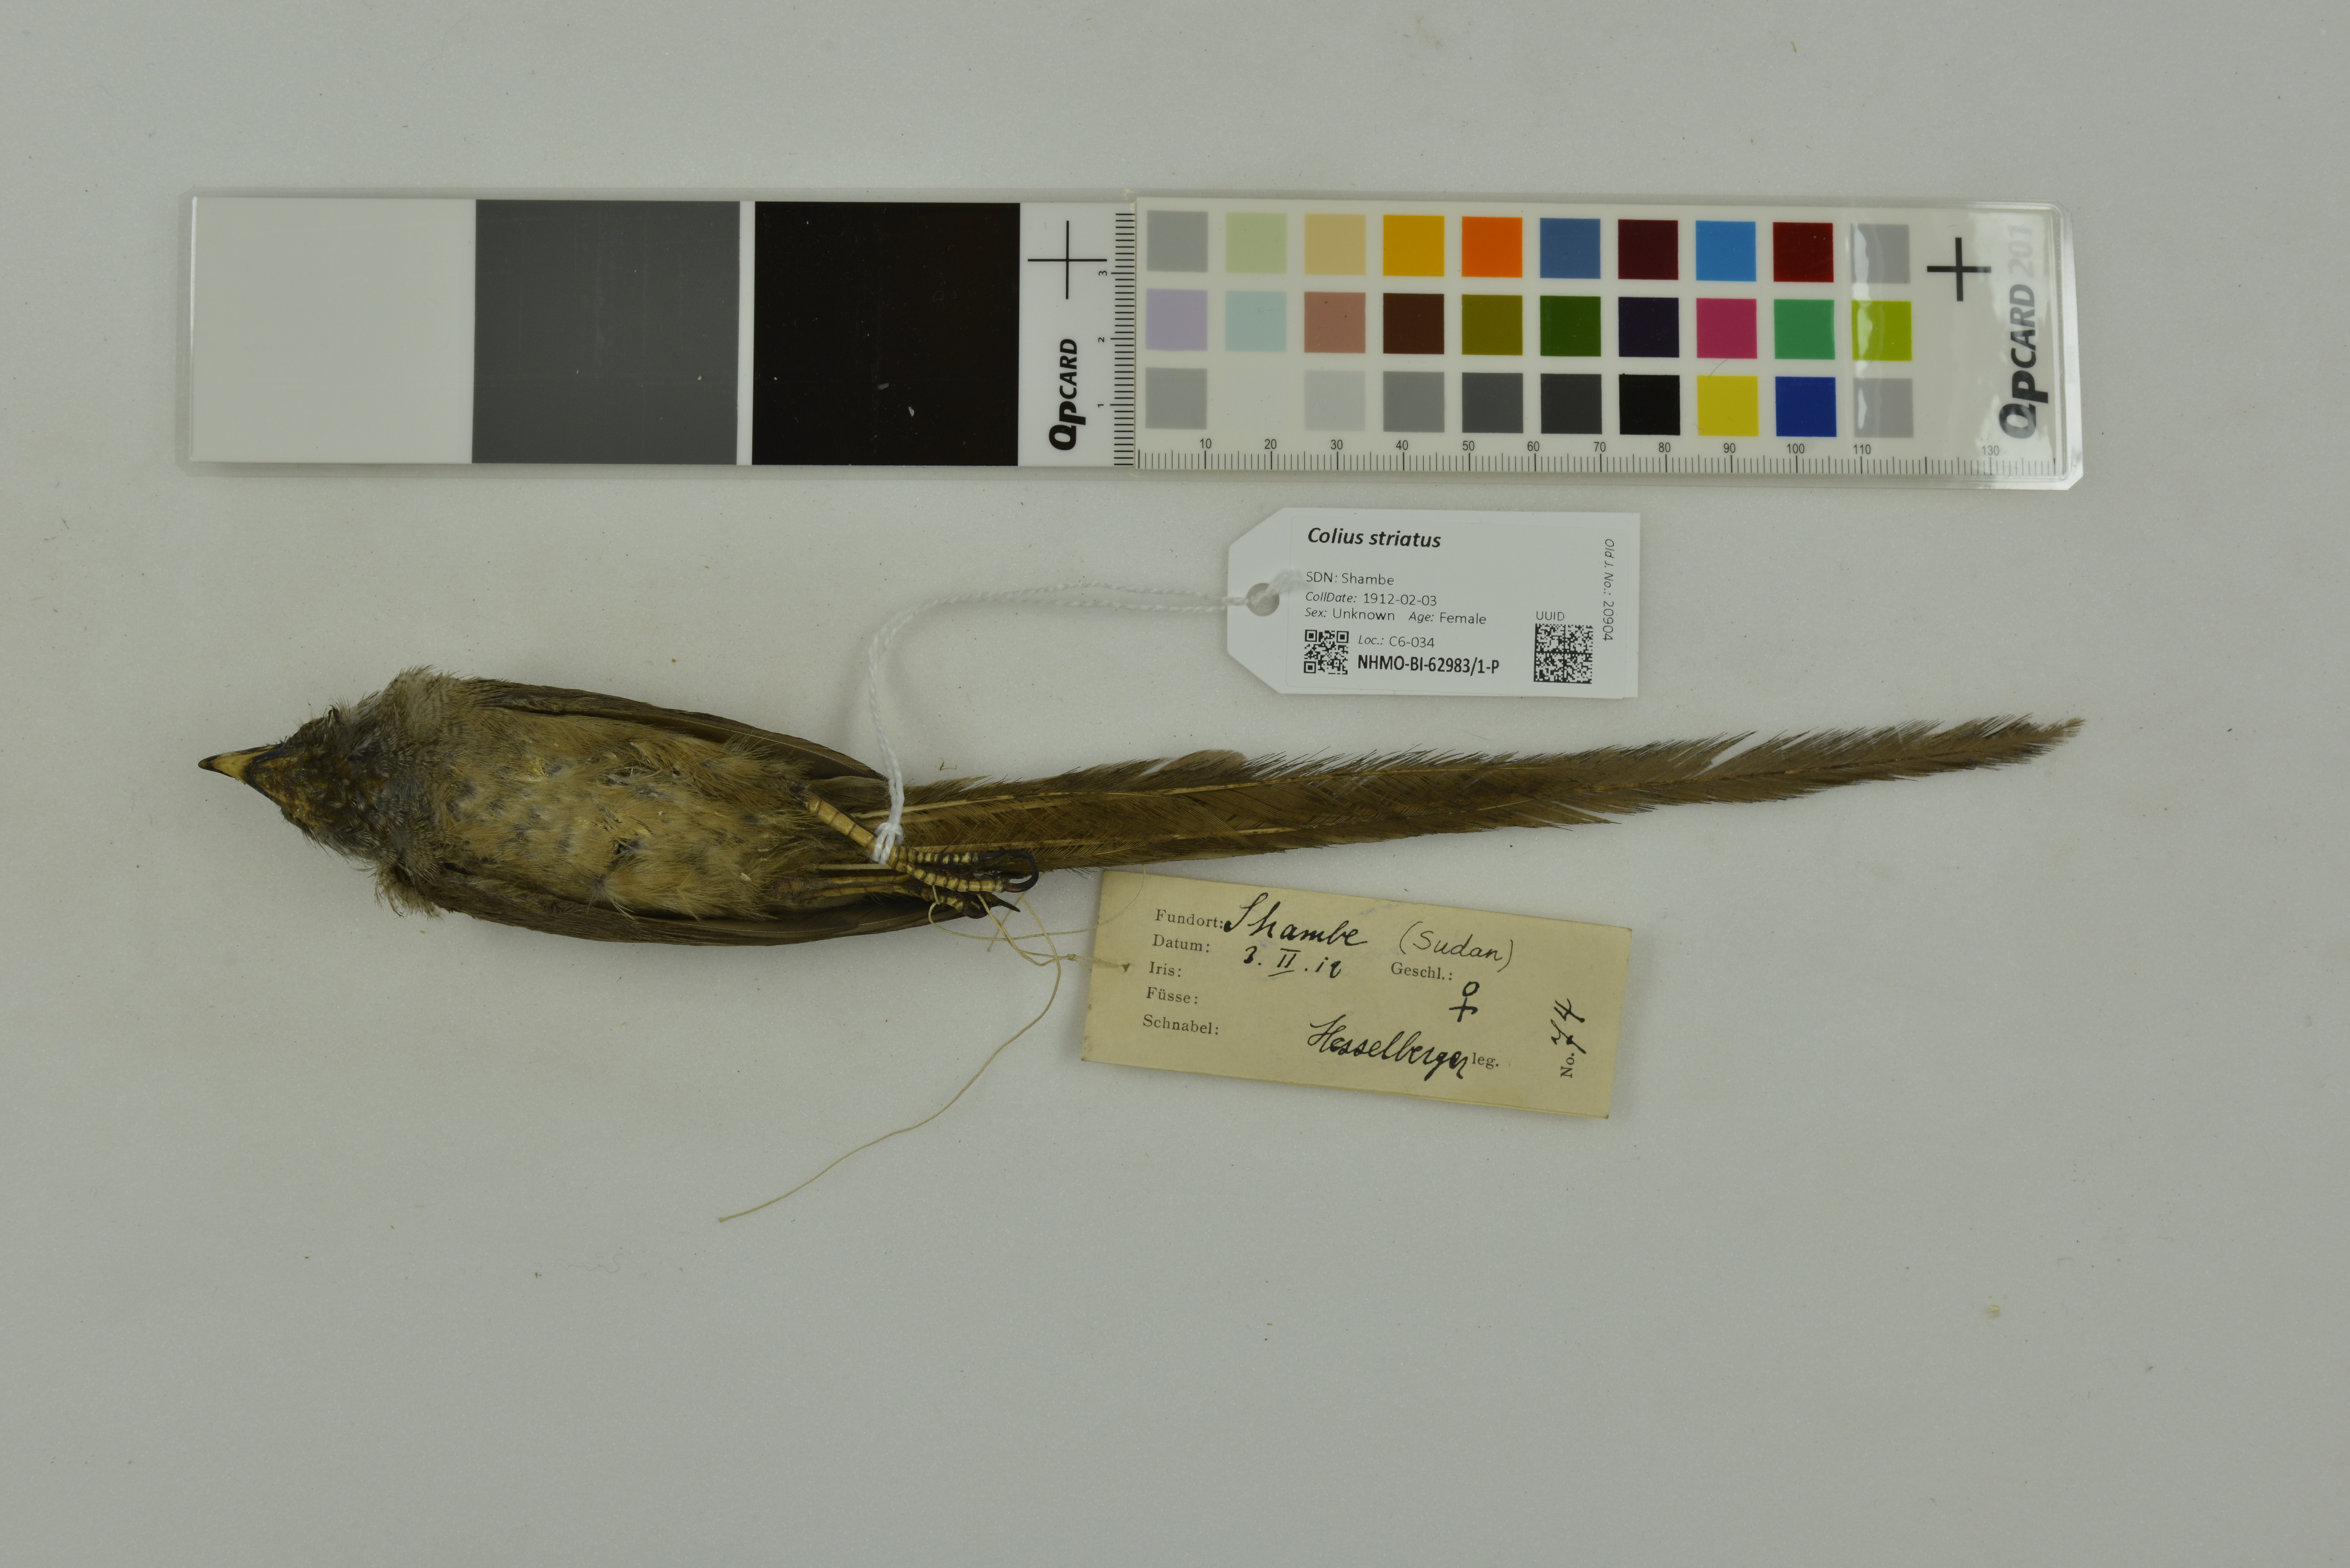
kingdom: Animalia
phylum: Chordata
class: Aves
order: Coliiformes
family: Coliidae
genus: Colius
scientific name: Colius striatus
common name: Speckled mousebird
